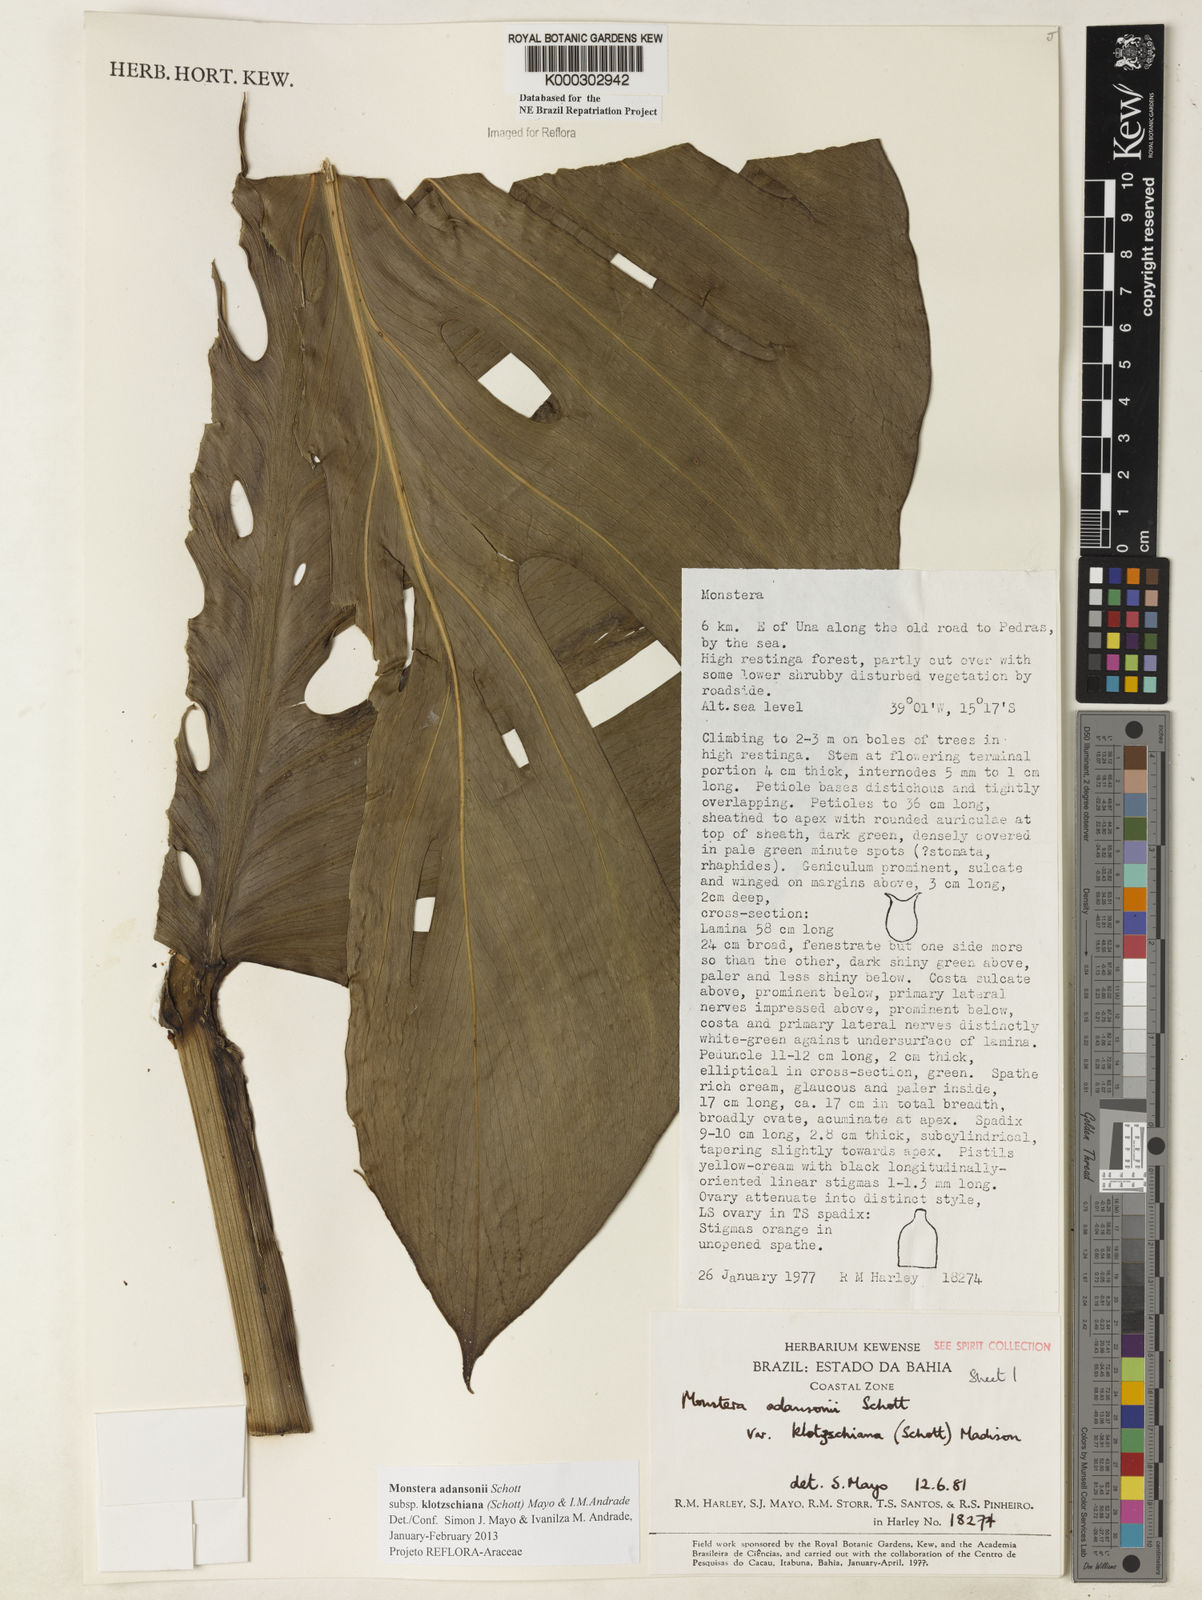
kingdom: Plantae
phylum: Tracheophyta
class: Liliopsida
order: Alismatales
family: Araceae
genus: Monstera
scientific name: Monstera adansonii
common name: Tarovine
